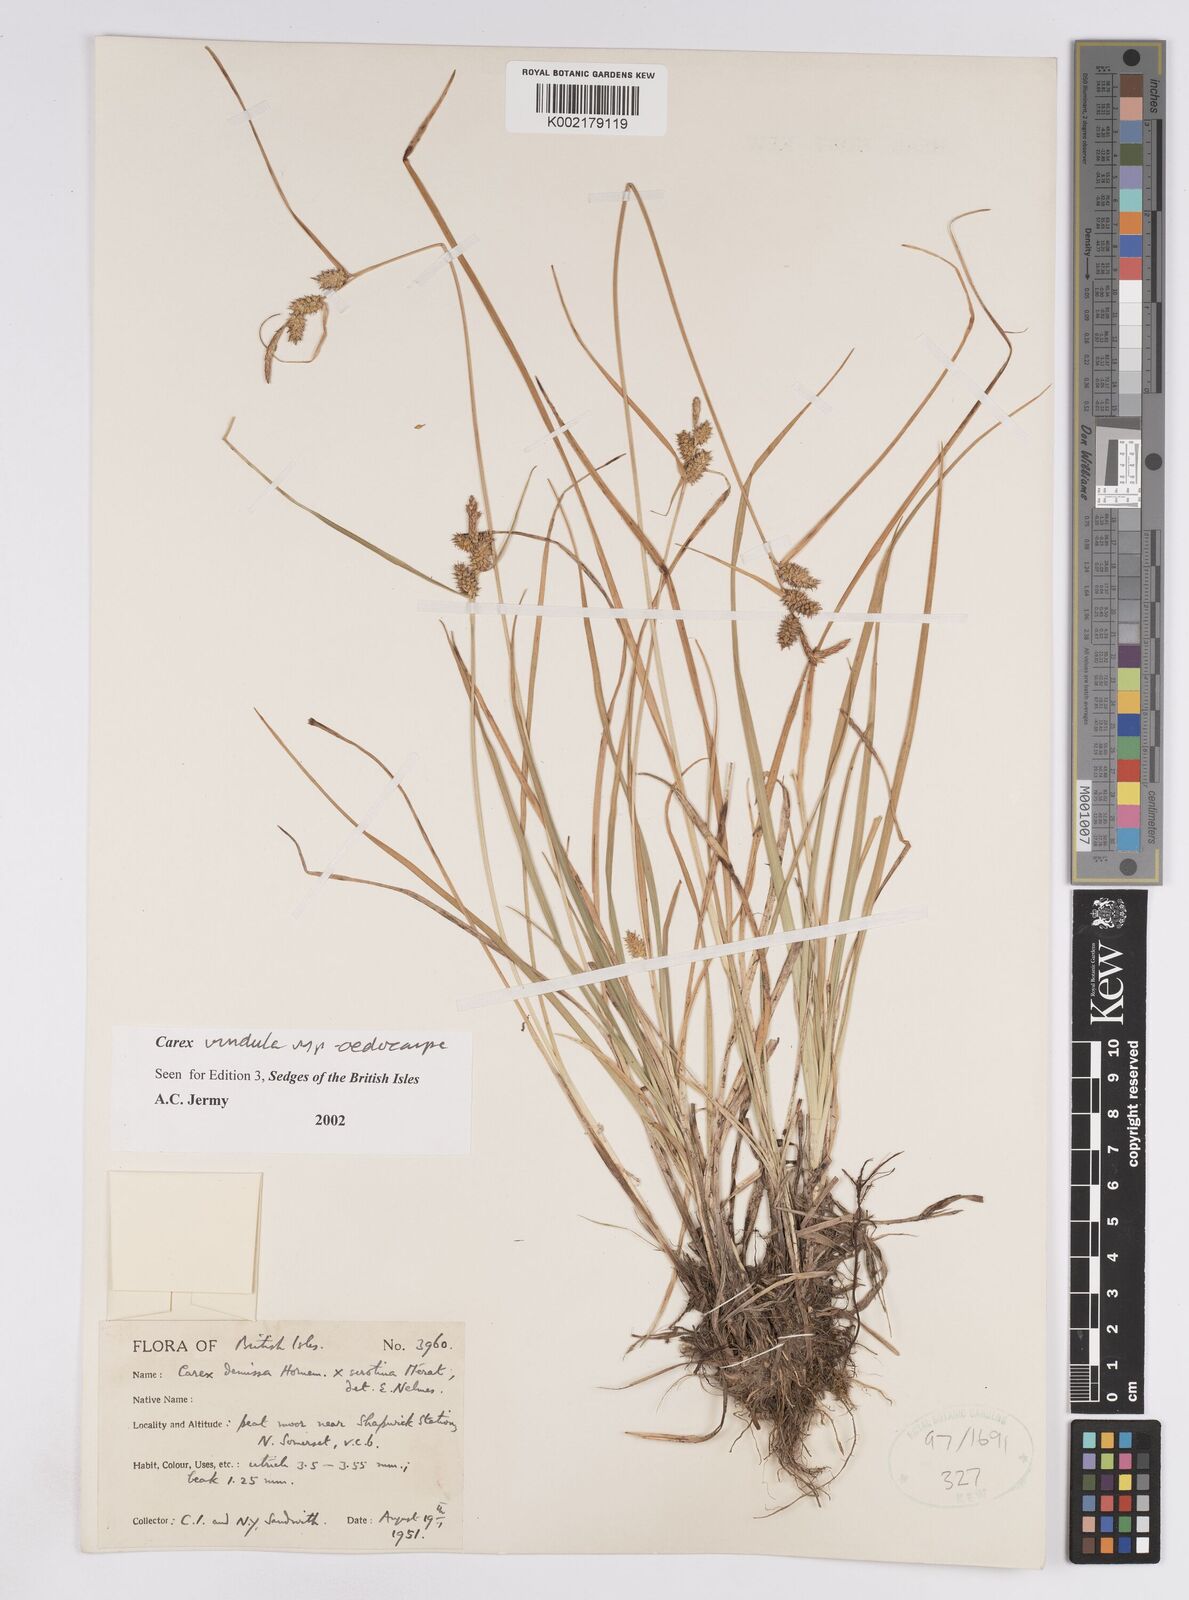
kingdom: Plantae
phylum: Tracheophyta
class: Liliopsida
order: Poales
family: Cyperaceae
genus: Carex
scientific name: Carex demissa
